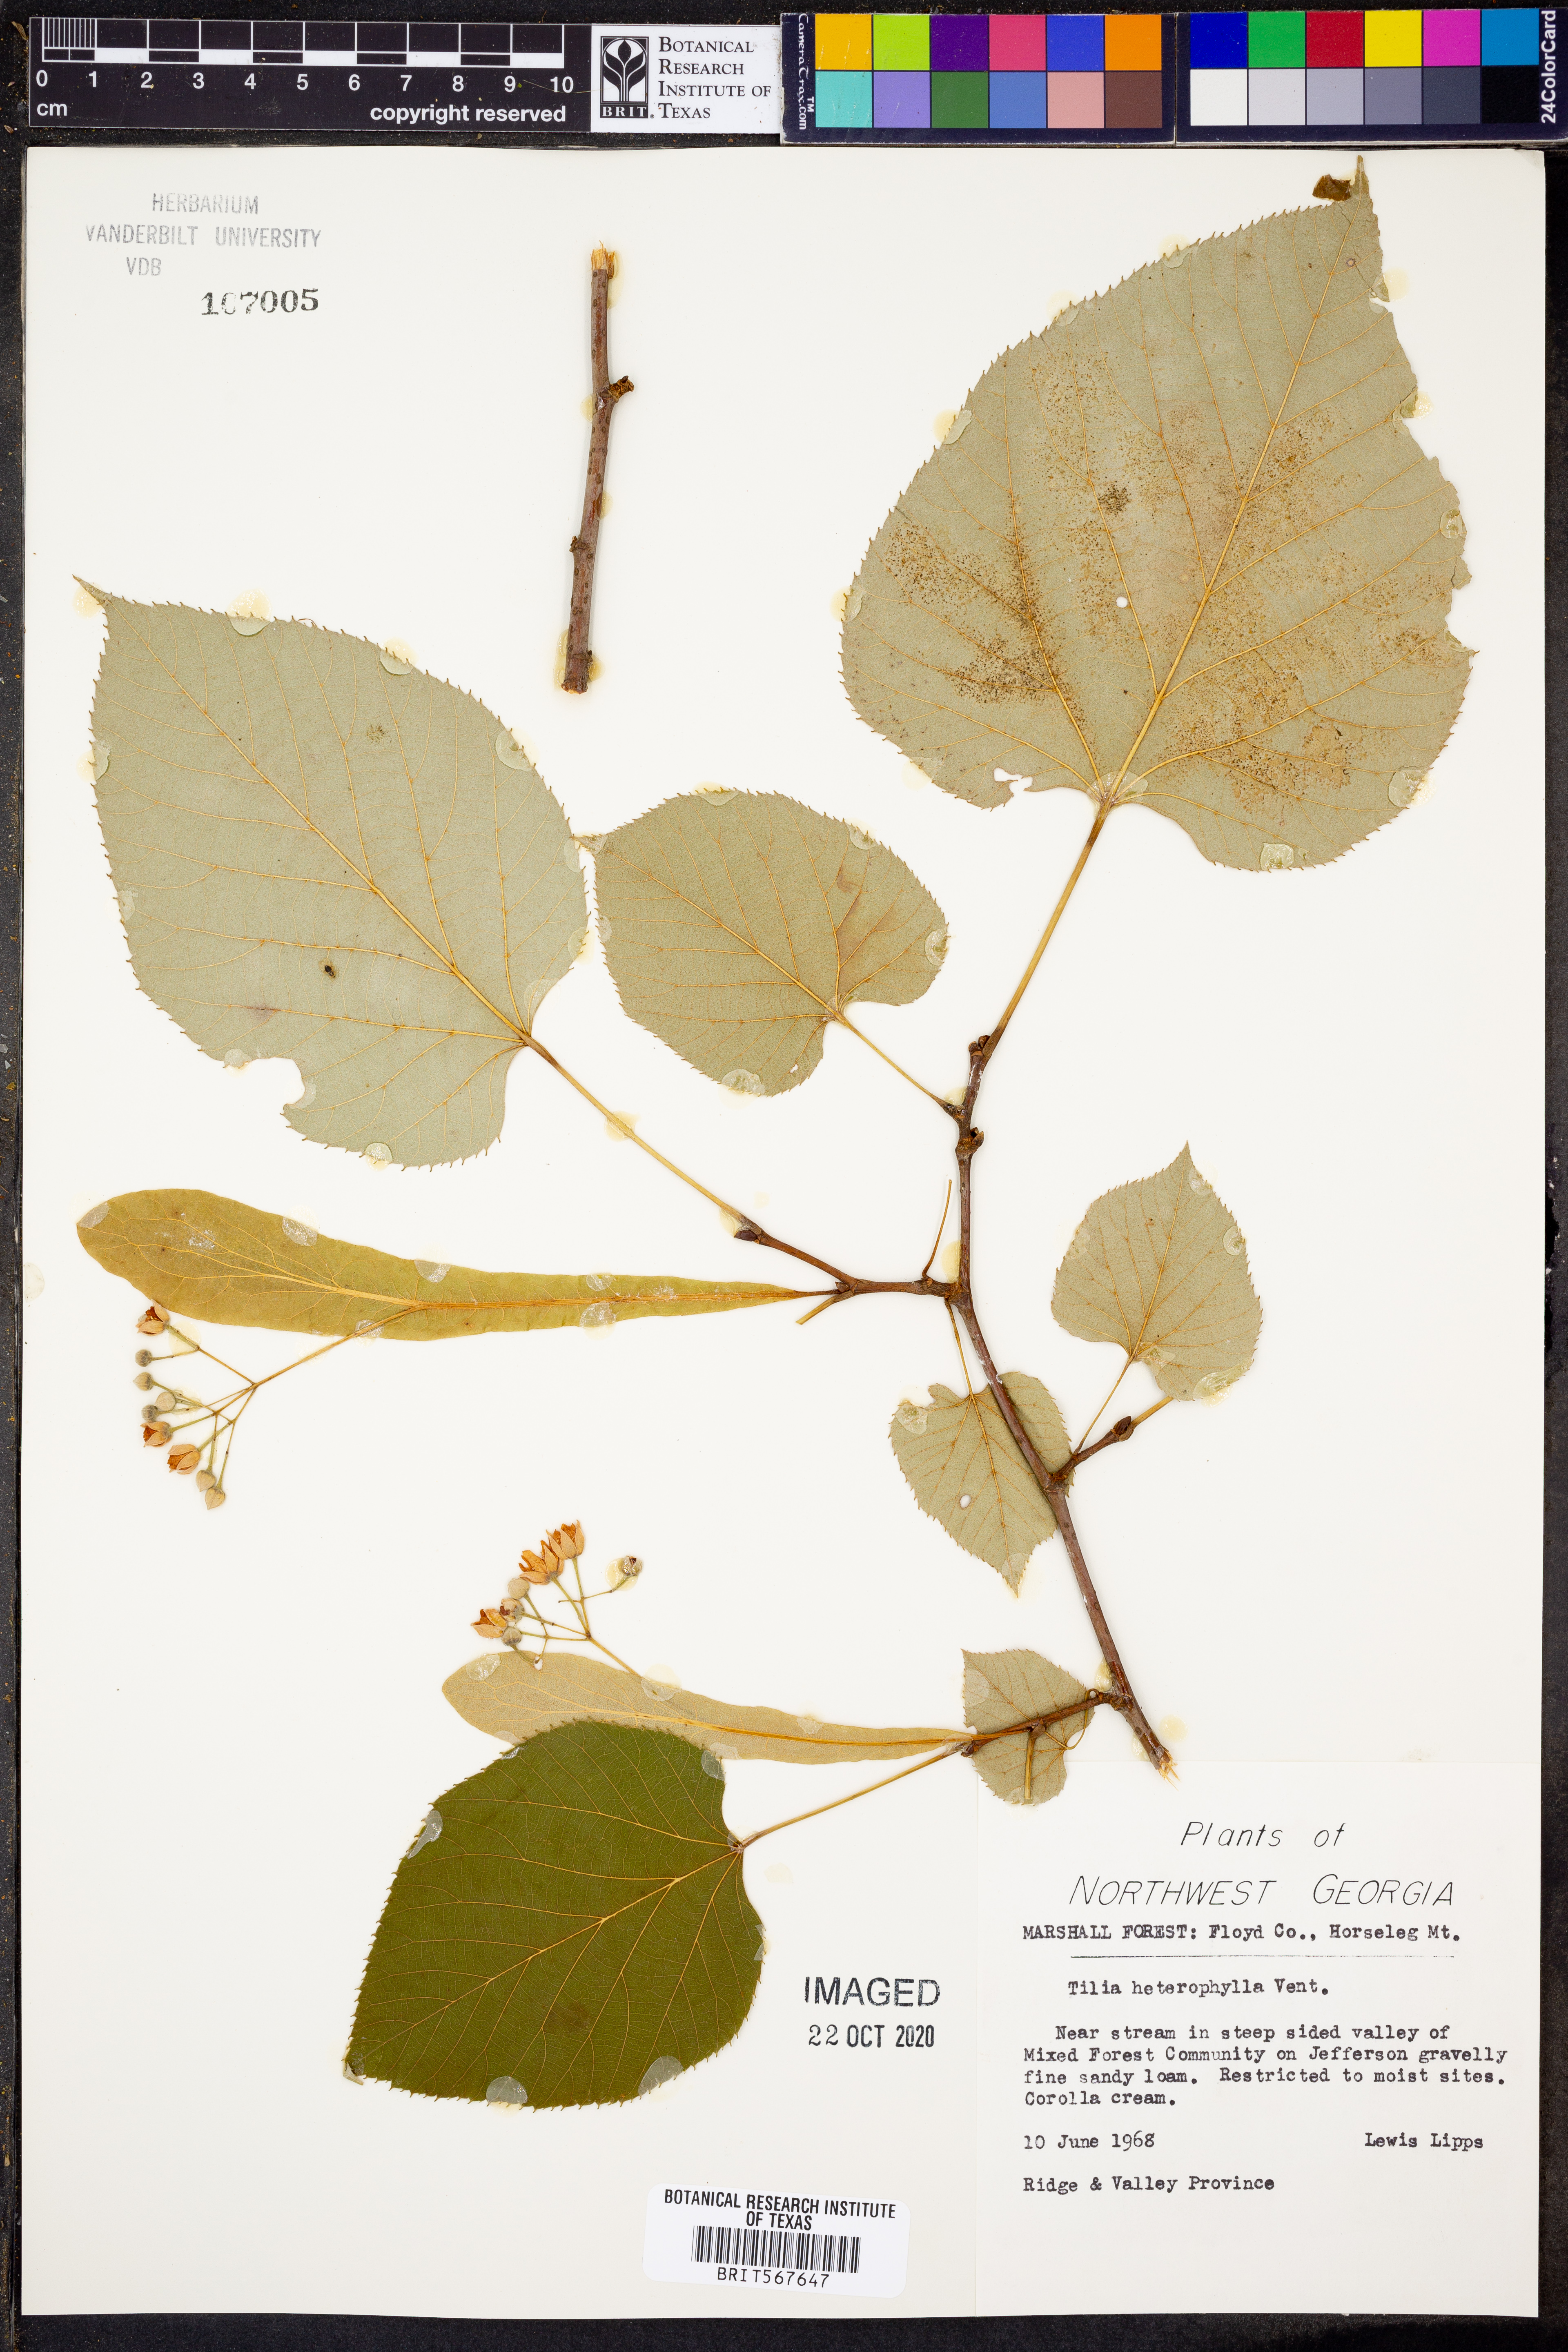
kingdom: Plantae
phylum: Tracheophyta
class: Magnoliopsida
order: Malvales
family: Malvaceae
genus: Tilia
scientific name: Tilia americana
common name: Basswood
